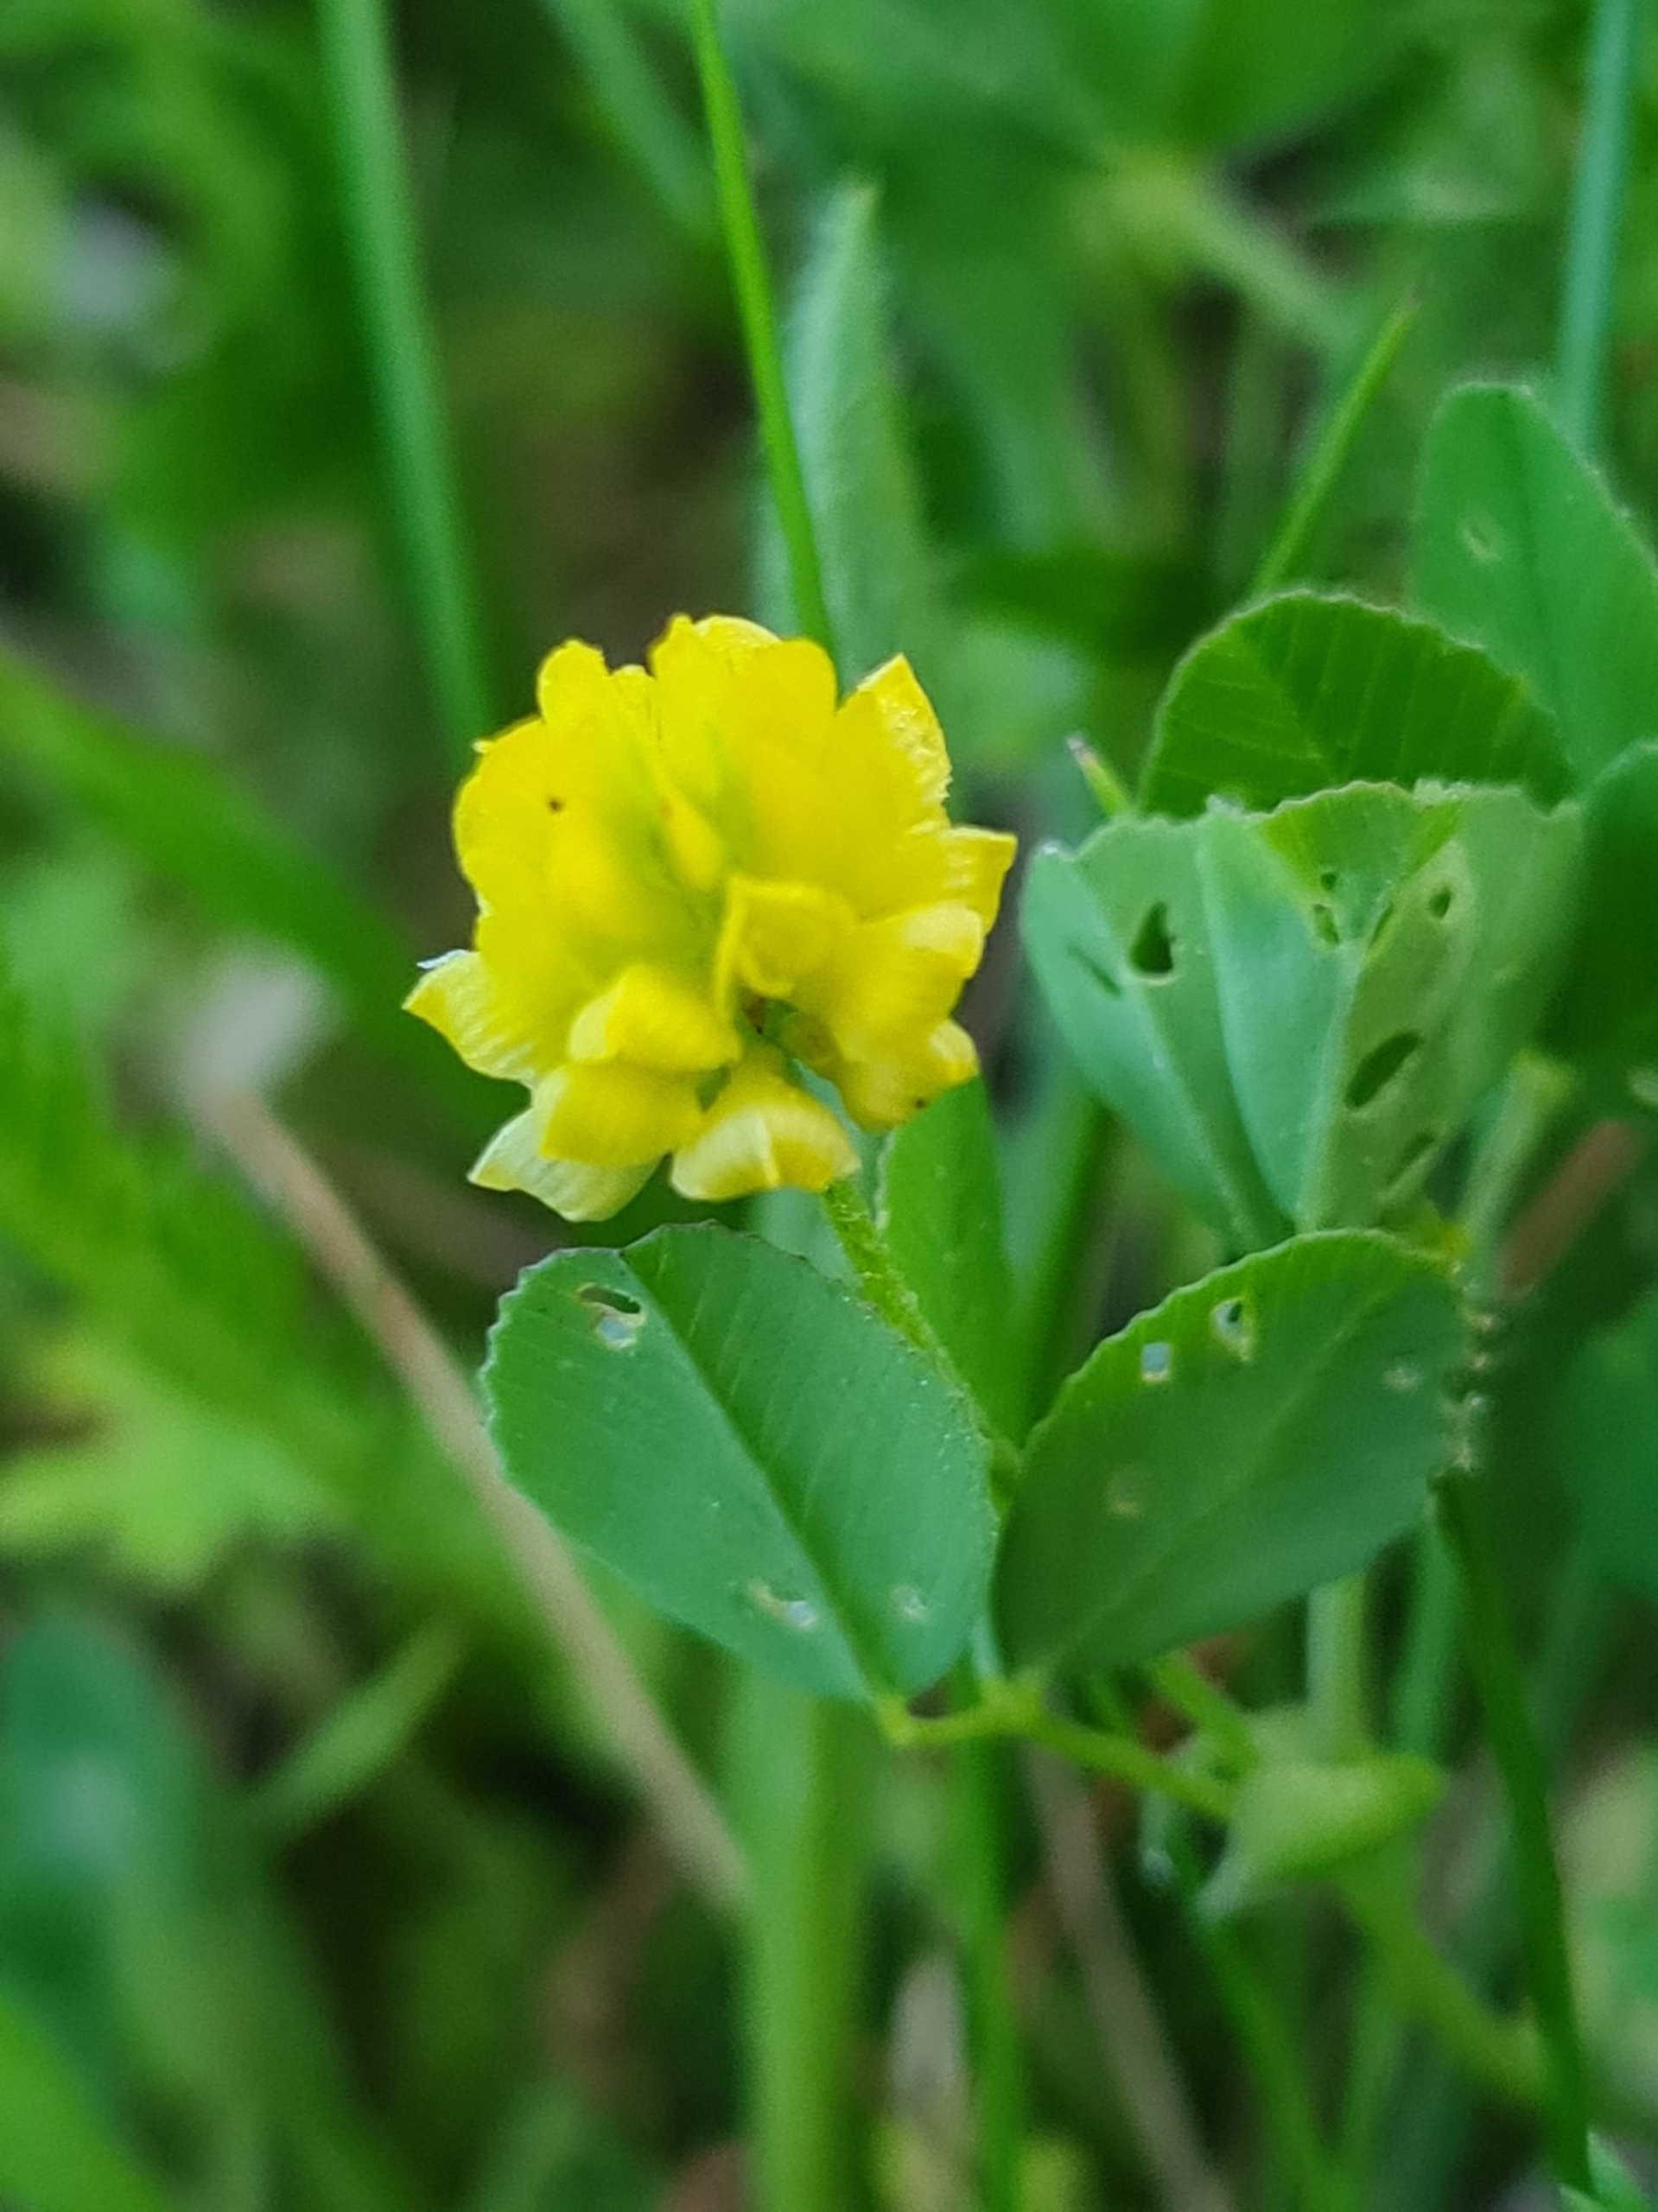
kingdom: Plantae
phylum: Tracheophyta
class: Magnoliopsida
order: Fabales
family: Fabaceae
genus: Trifolium
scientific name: Trifolium campestre
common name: Gul kløver
